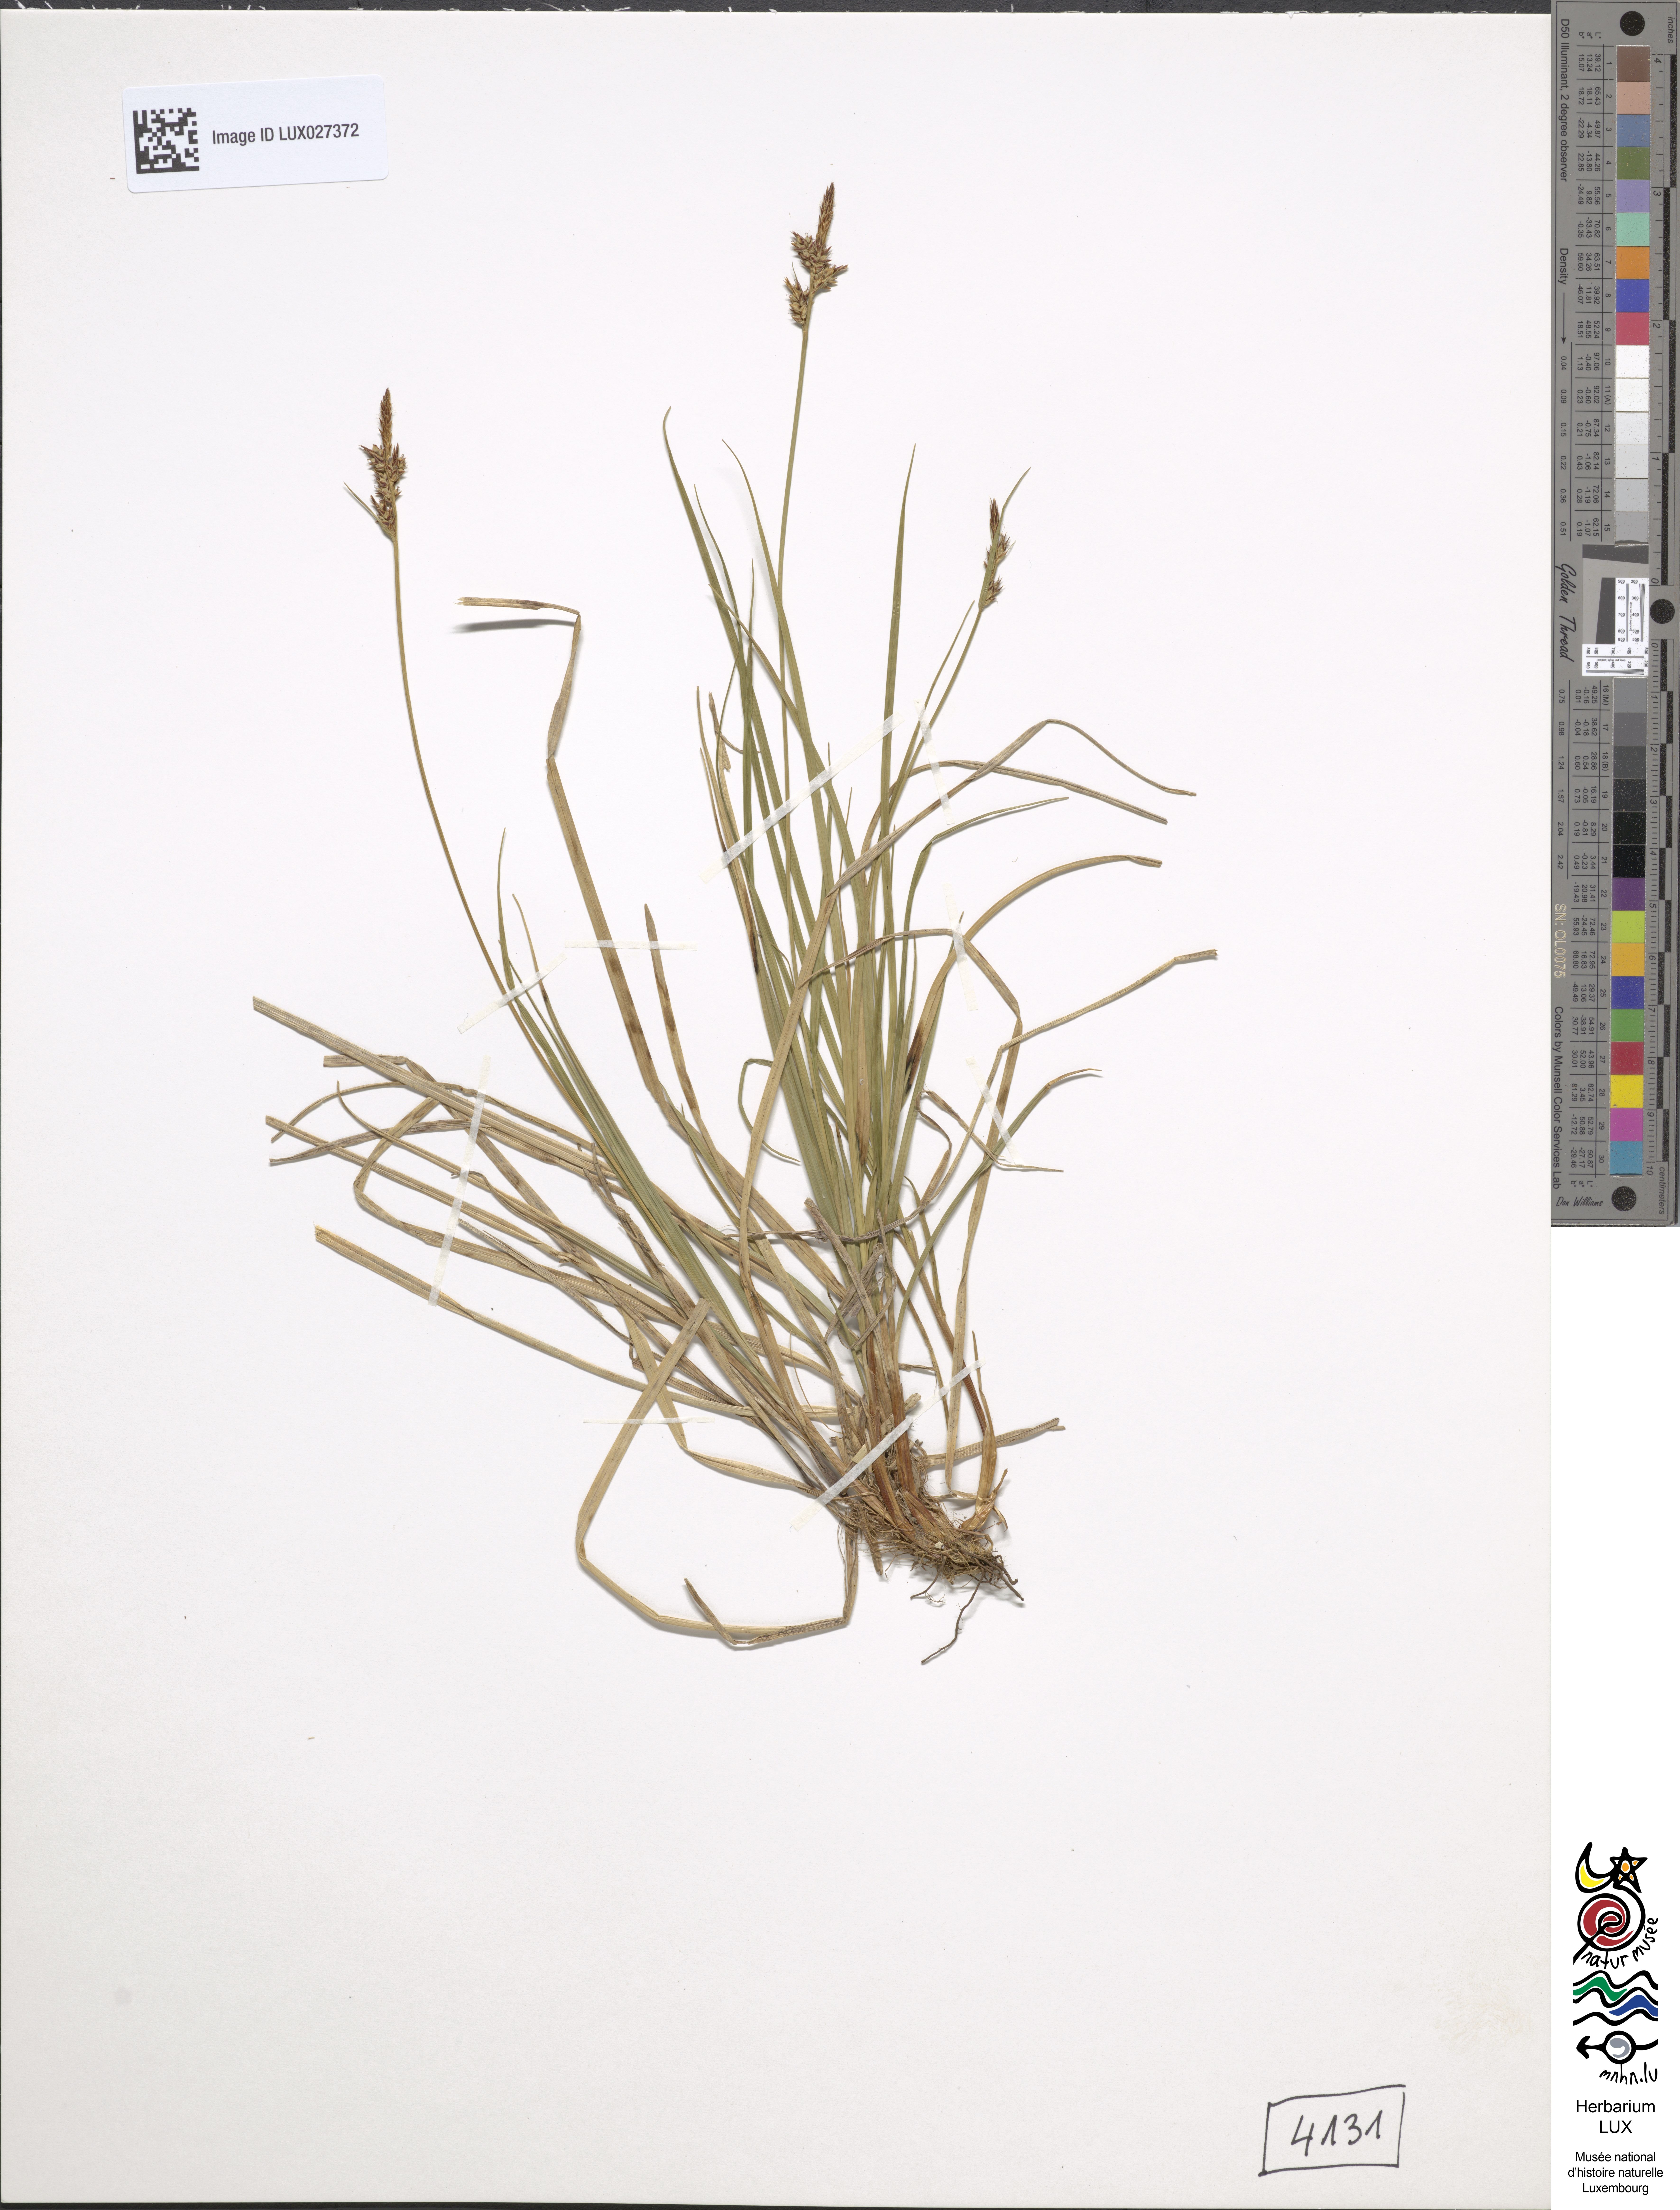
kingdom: Plantae
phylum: Tracheophyta
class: Liliopsida
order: Poales
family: Cyperaceae
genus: Carex
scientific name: Carex pilulifera
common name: Pill sedge
